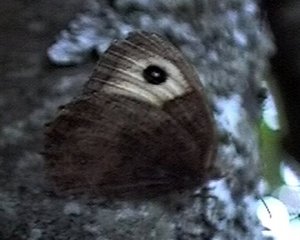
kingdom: Animalia
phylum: Arthropoda
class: Insecta
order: Lepidoptera
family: Nymphalidae
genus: Cercyonis
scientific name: Cercyonis pegala
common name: Common Wood-Nymph
